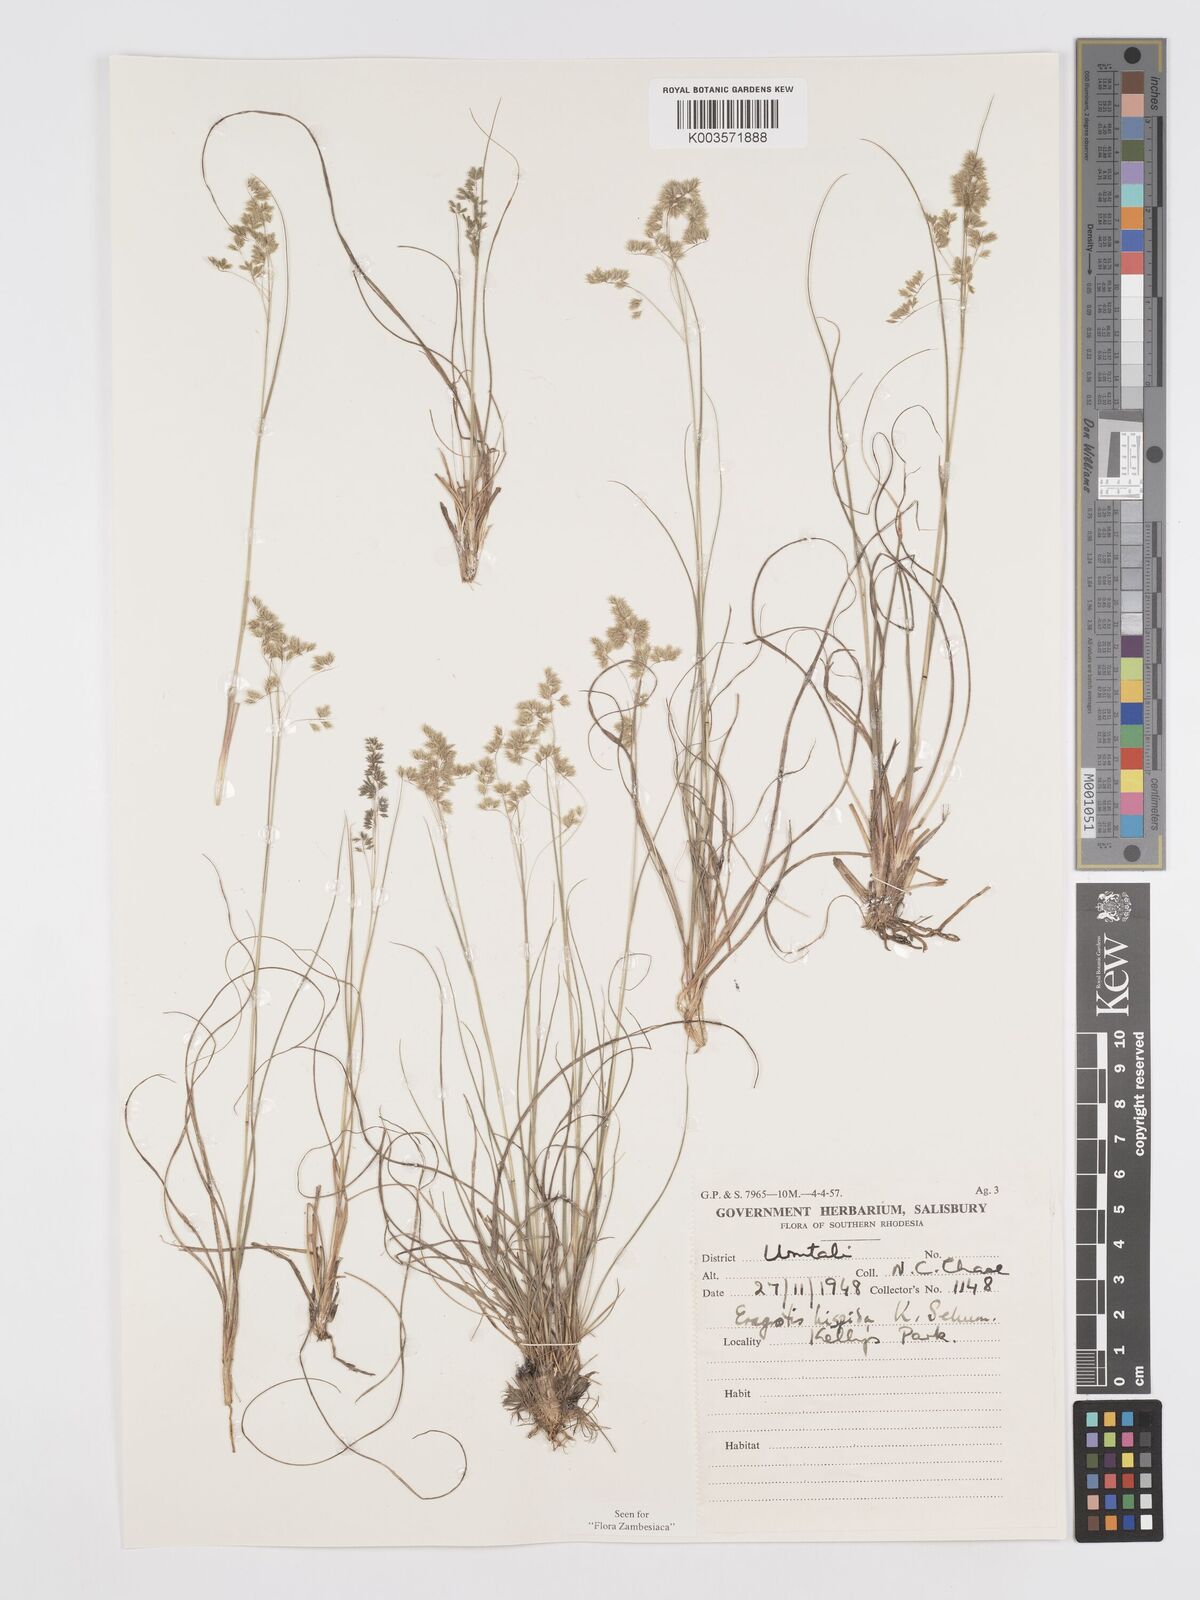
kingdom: Plantae
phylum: Tracheophyta
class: Liliopsida
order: Poales
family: Poaceae
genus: Eragrostis
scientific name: Eragrostis hispida
